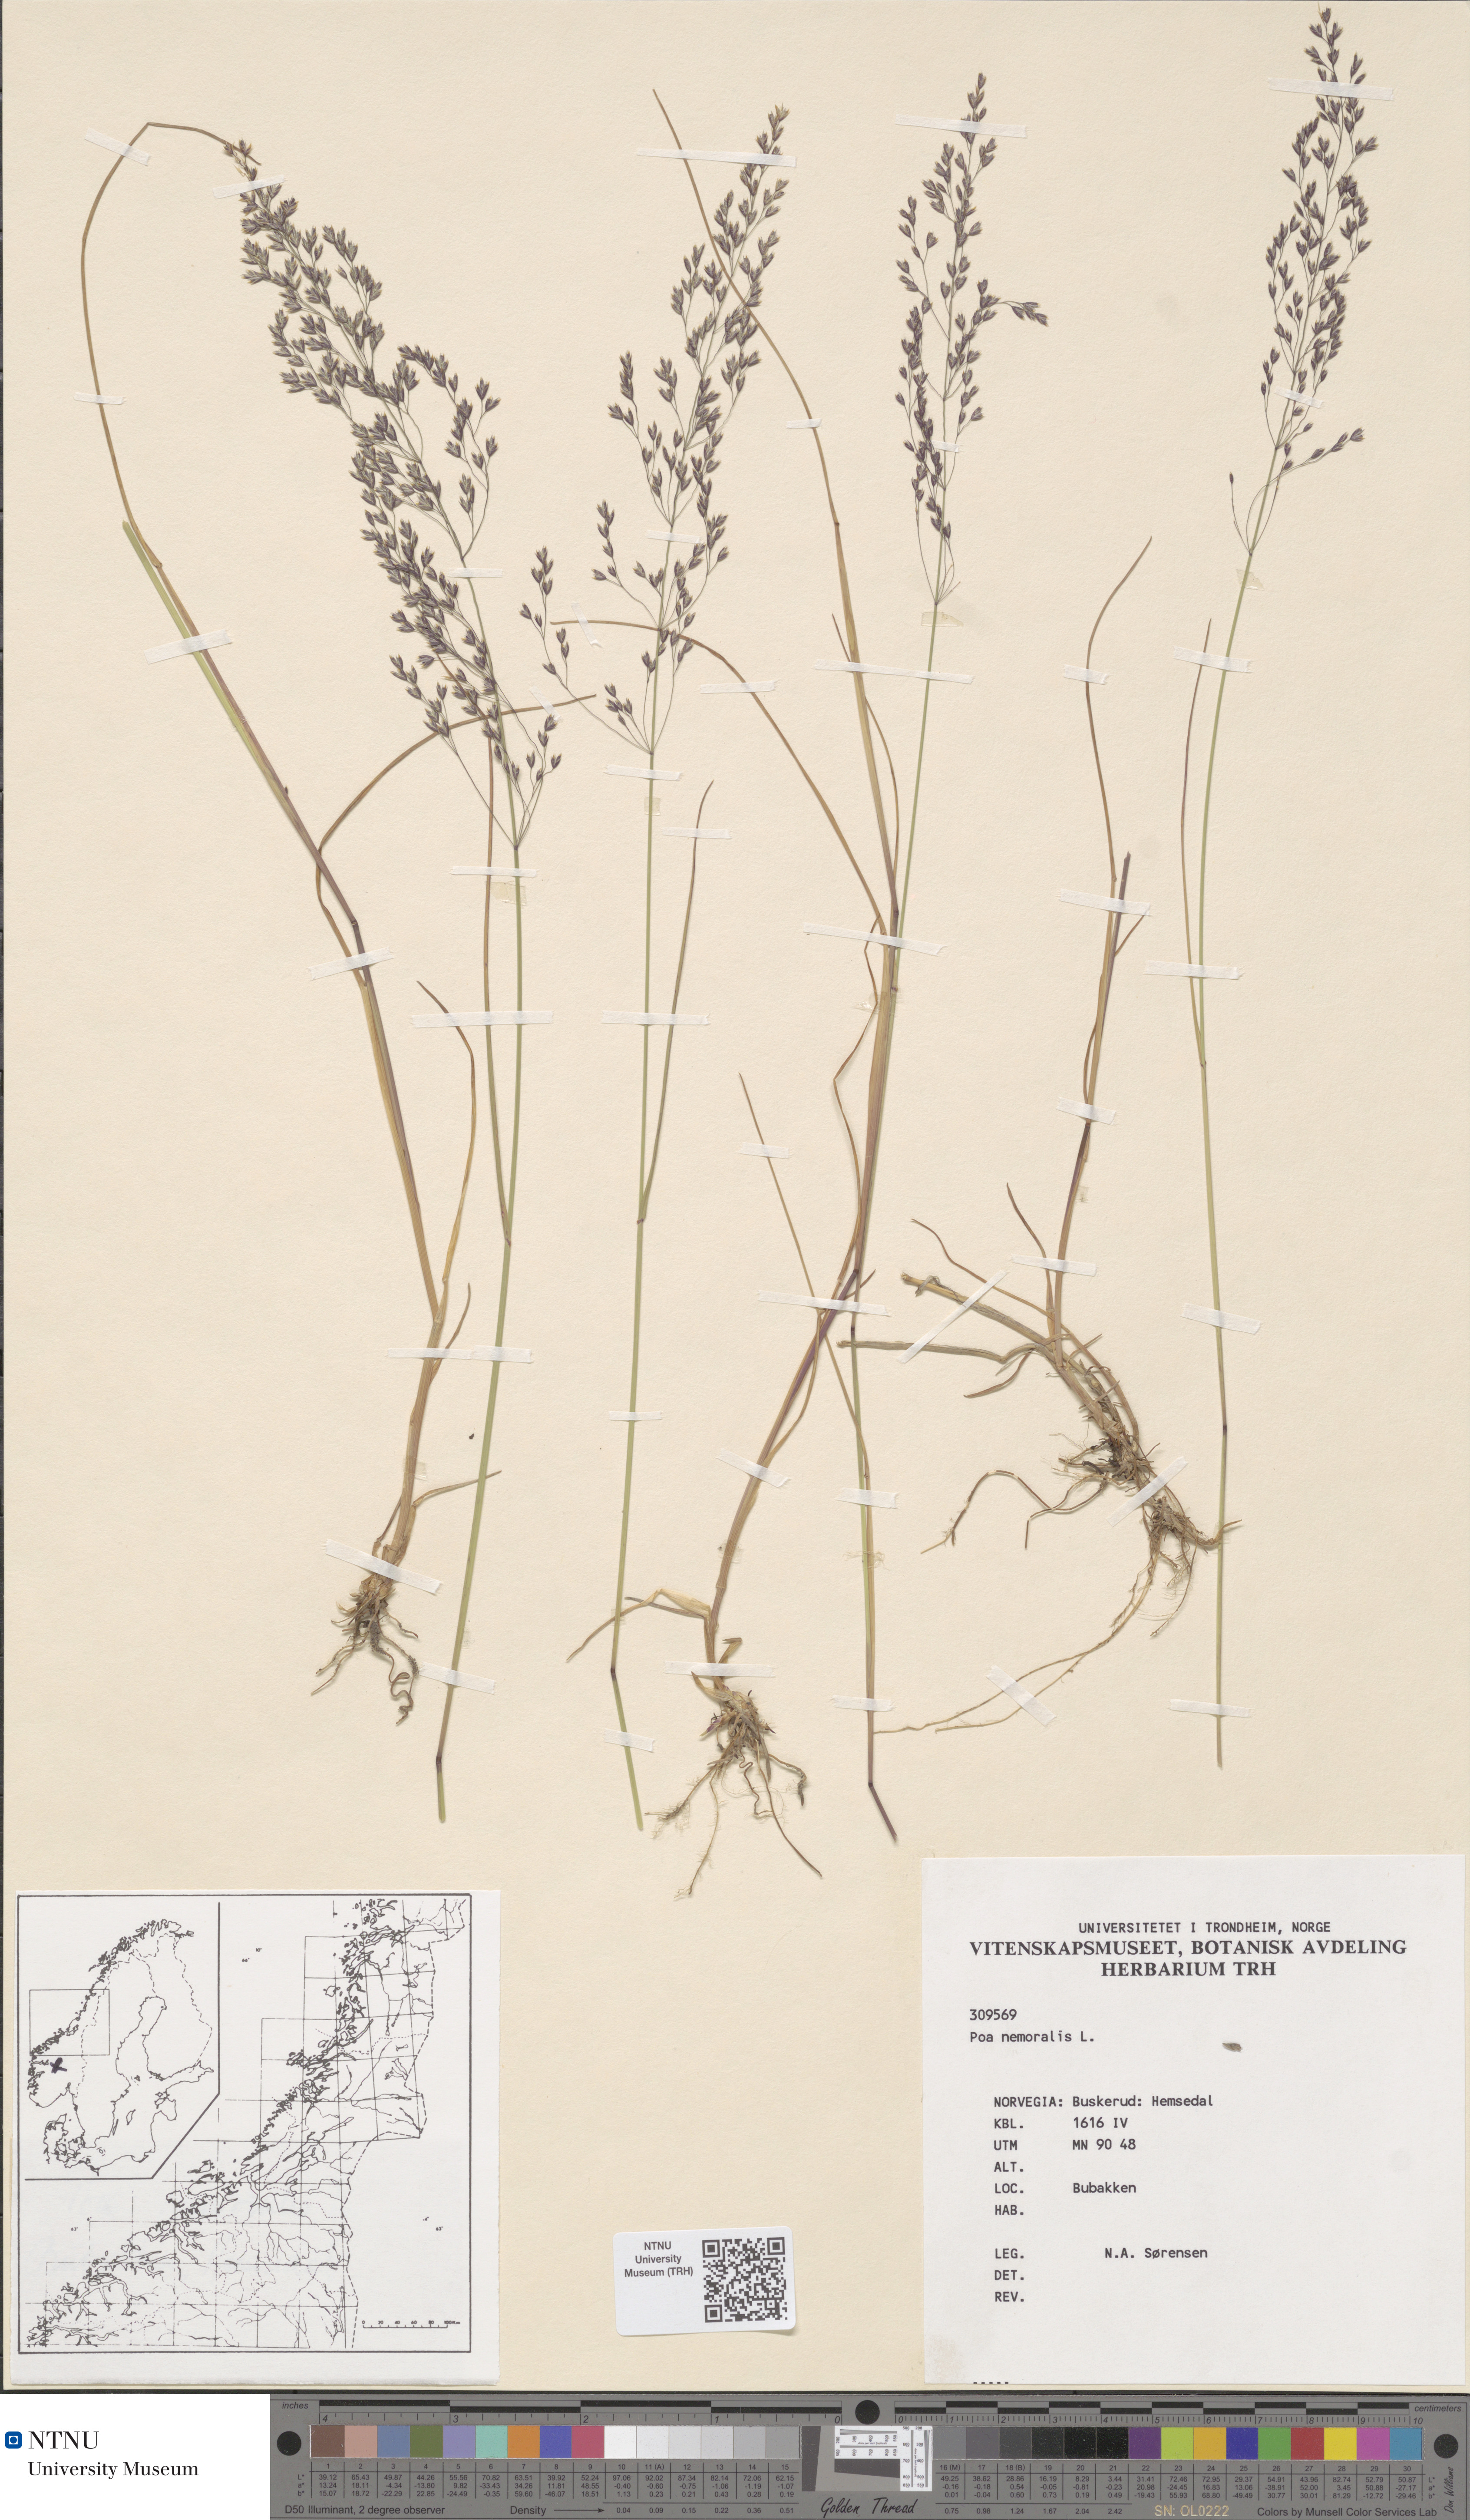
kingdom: Plantae
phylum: Tracheophyta
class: Liliopsida
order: Poales
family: Poaceae
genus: Poa
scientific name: Poa nemoralis
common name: Wood bluegrass
